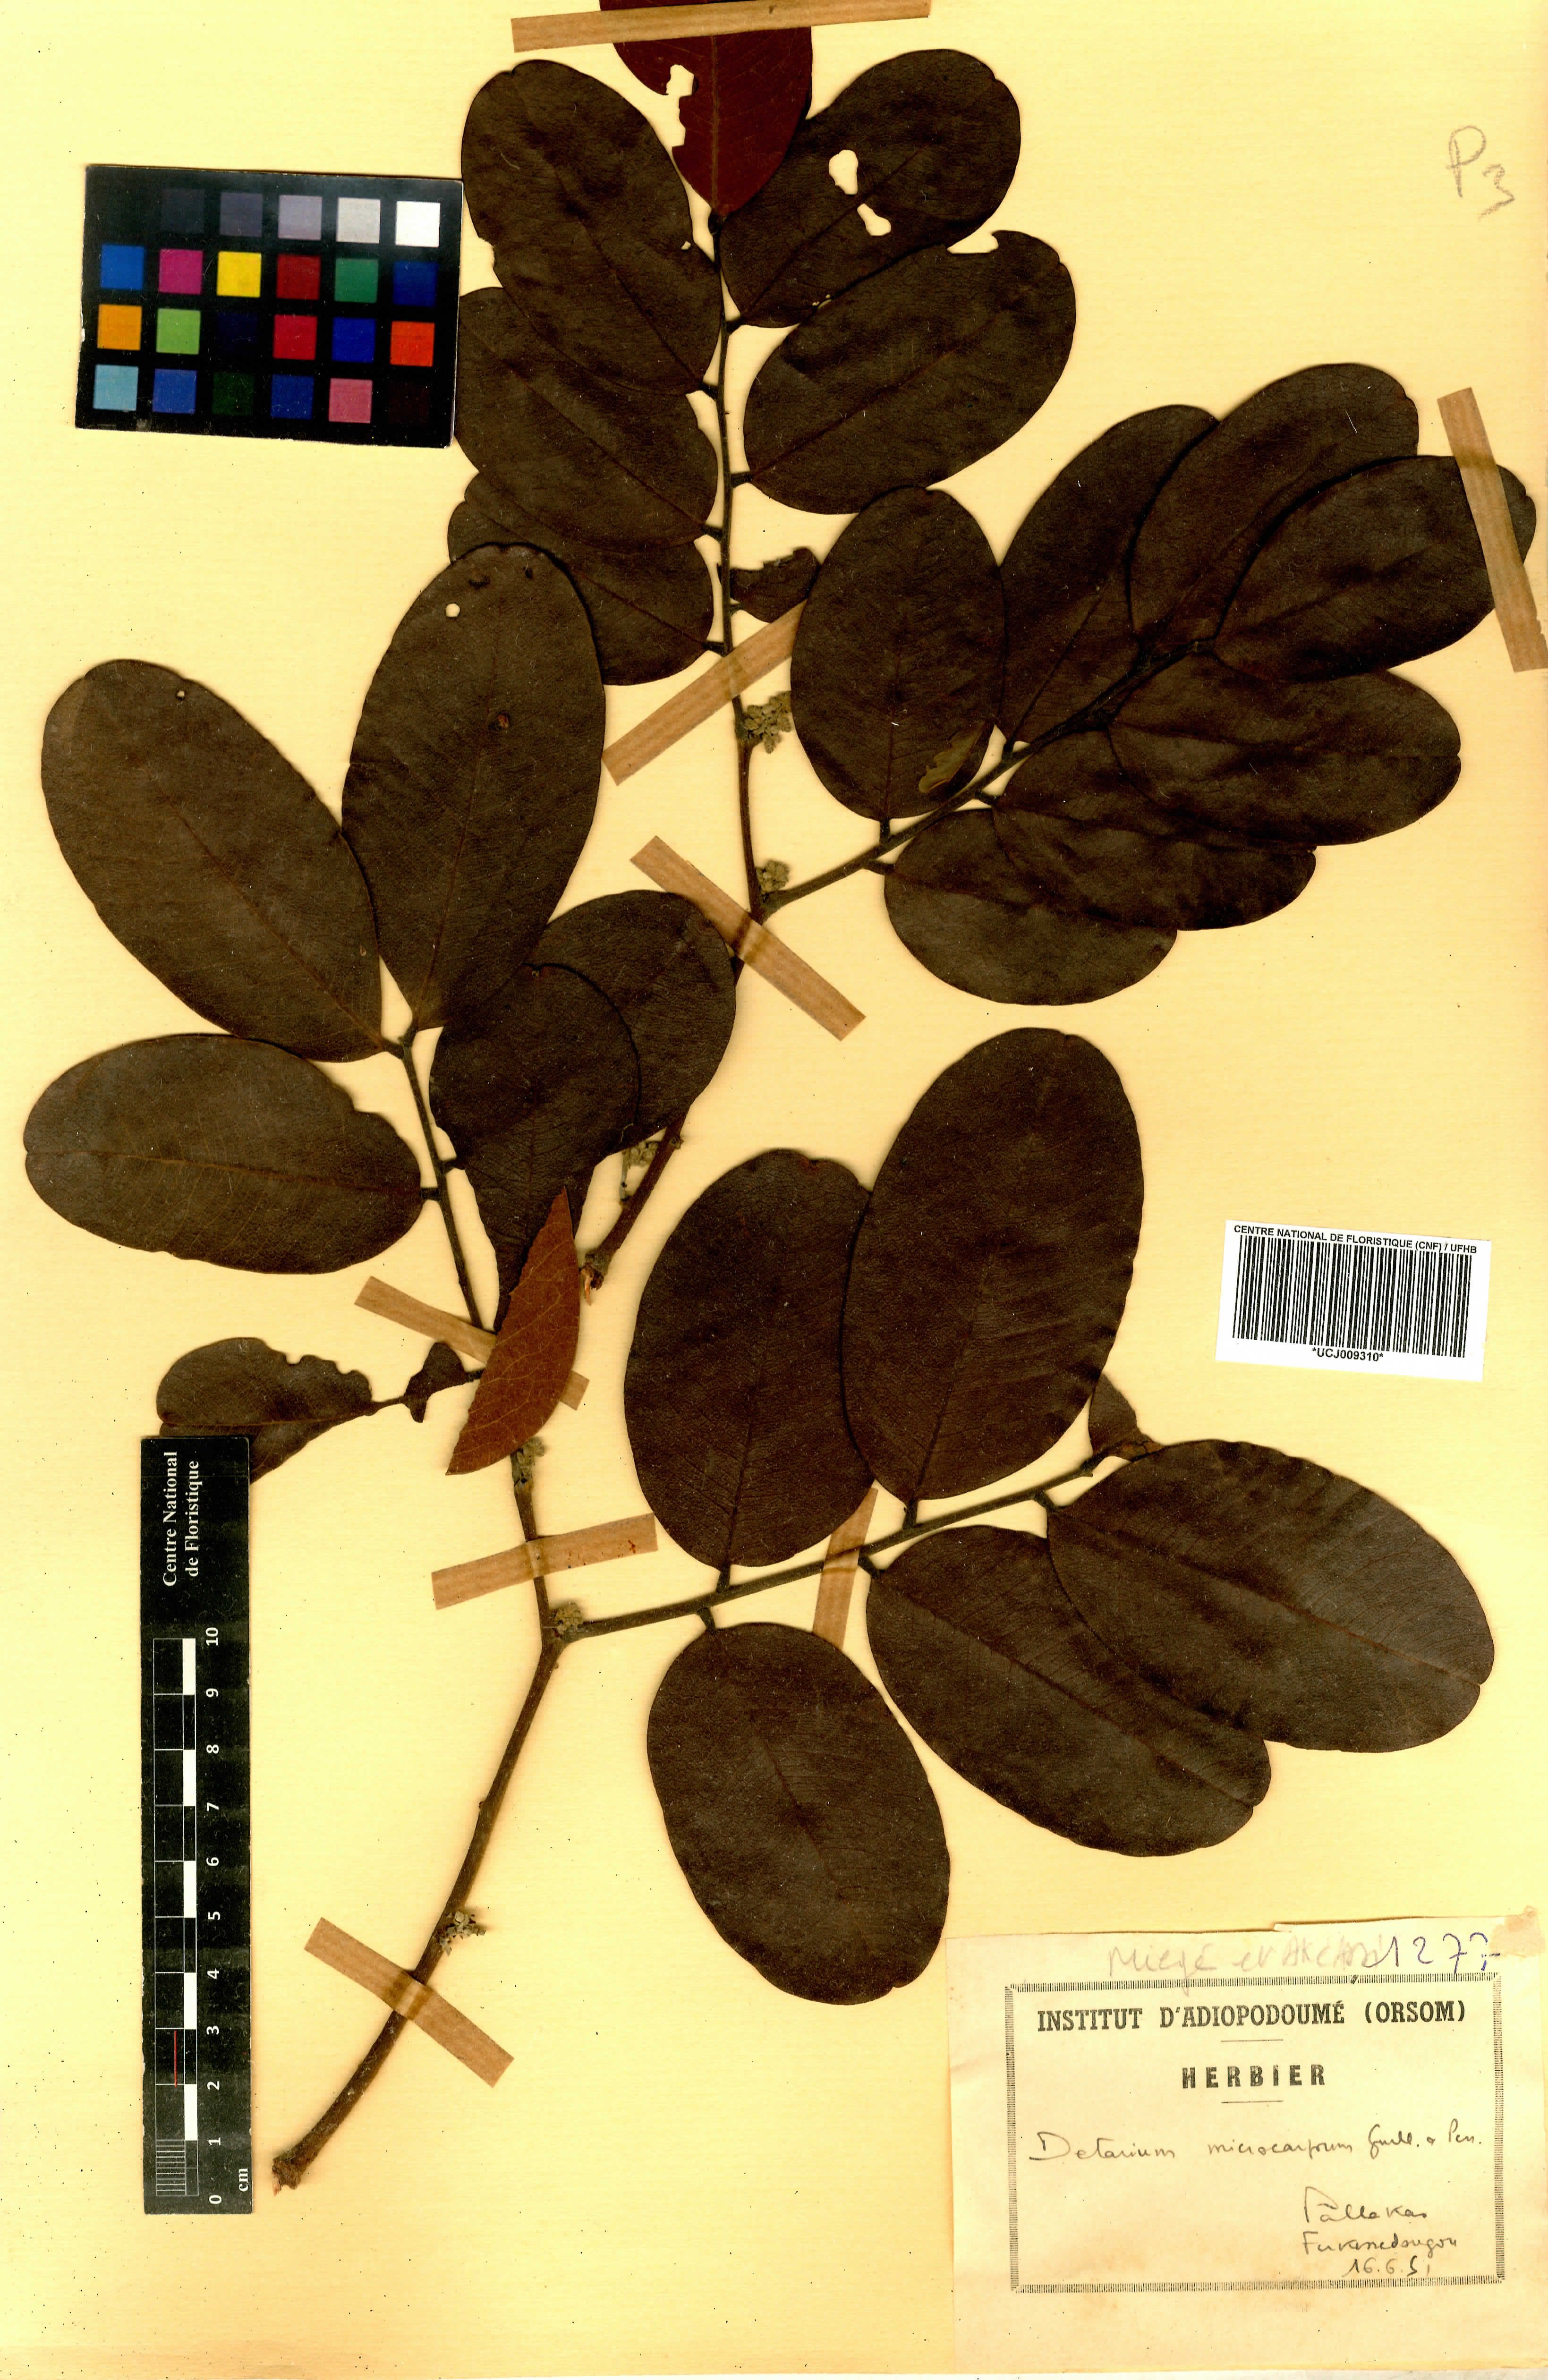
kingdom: Plantae
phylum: Tracheophyta
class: Magnoliopsida
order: Fabales
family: Fabaceae
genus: Detarium
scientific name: Detarium microcarpum
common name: Sweet dattock
